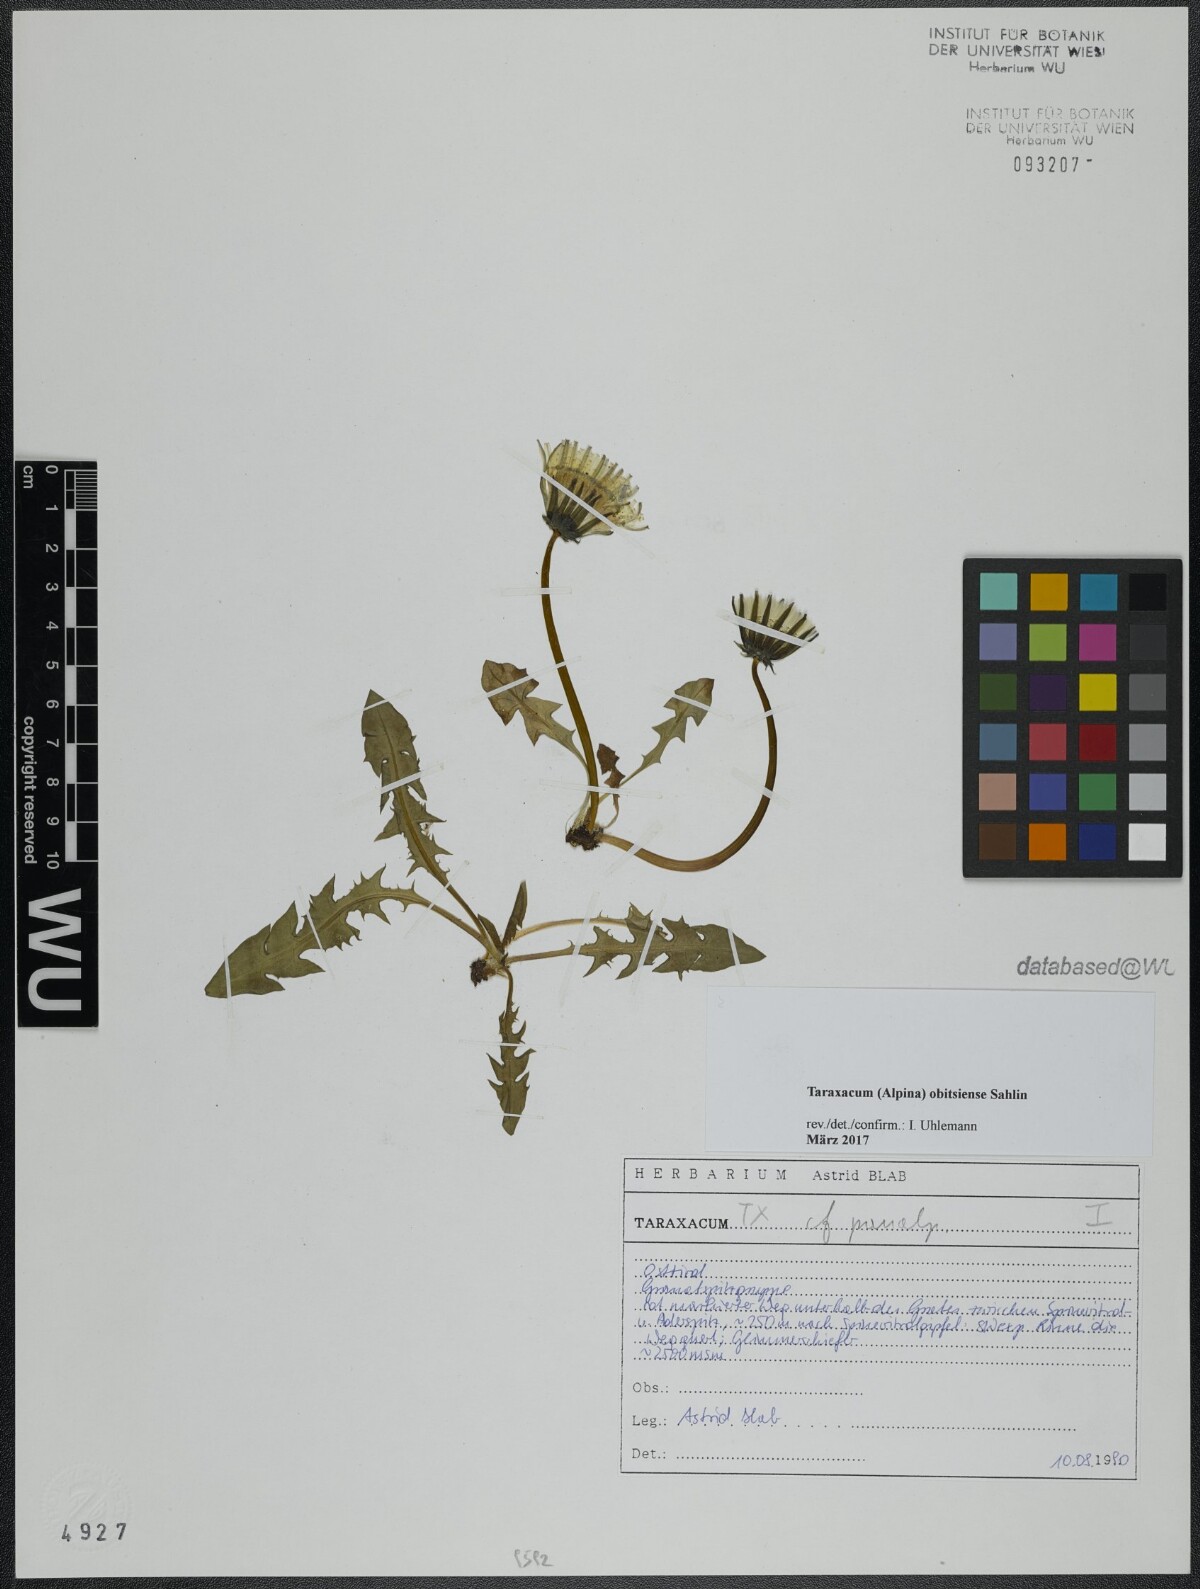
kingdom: Plantae
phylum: Tracheophyta
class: Magnoliopsida
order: Asterales
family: Asteraceae
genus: Taraxacum
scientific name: Taraxacum obitsiense
